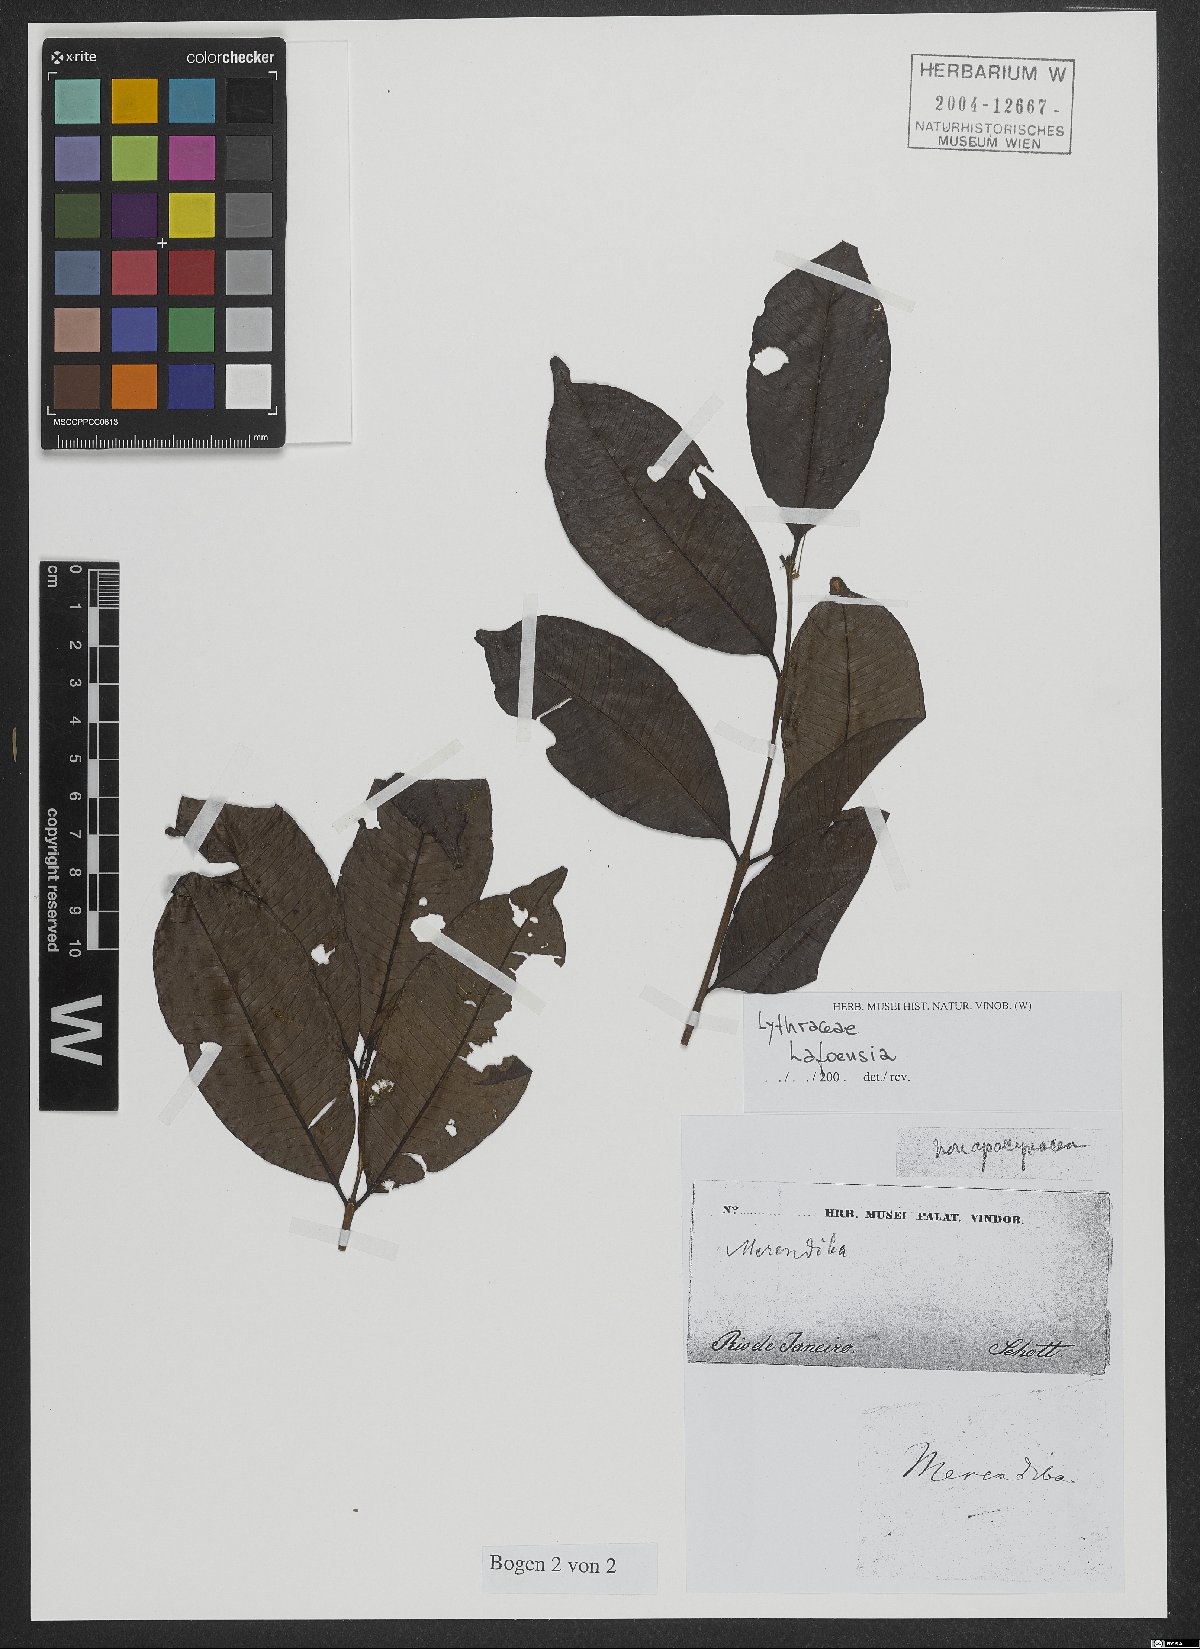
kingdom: Plantae
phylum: Tracheophyta
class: Magnoliopsida
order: Myrtales
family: Lythraceae
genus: Lafoensia
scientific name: Lafoensia vandelliana
